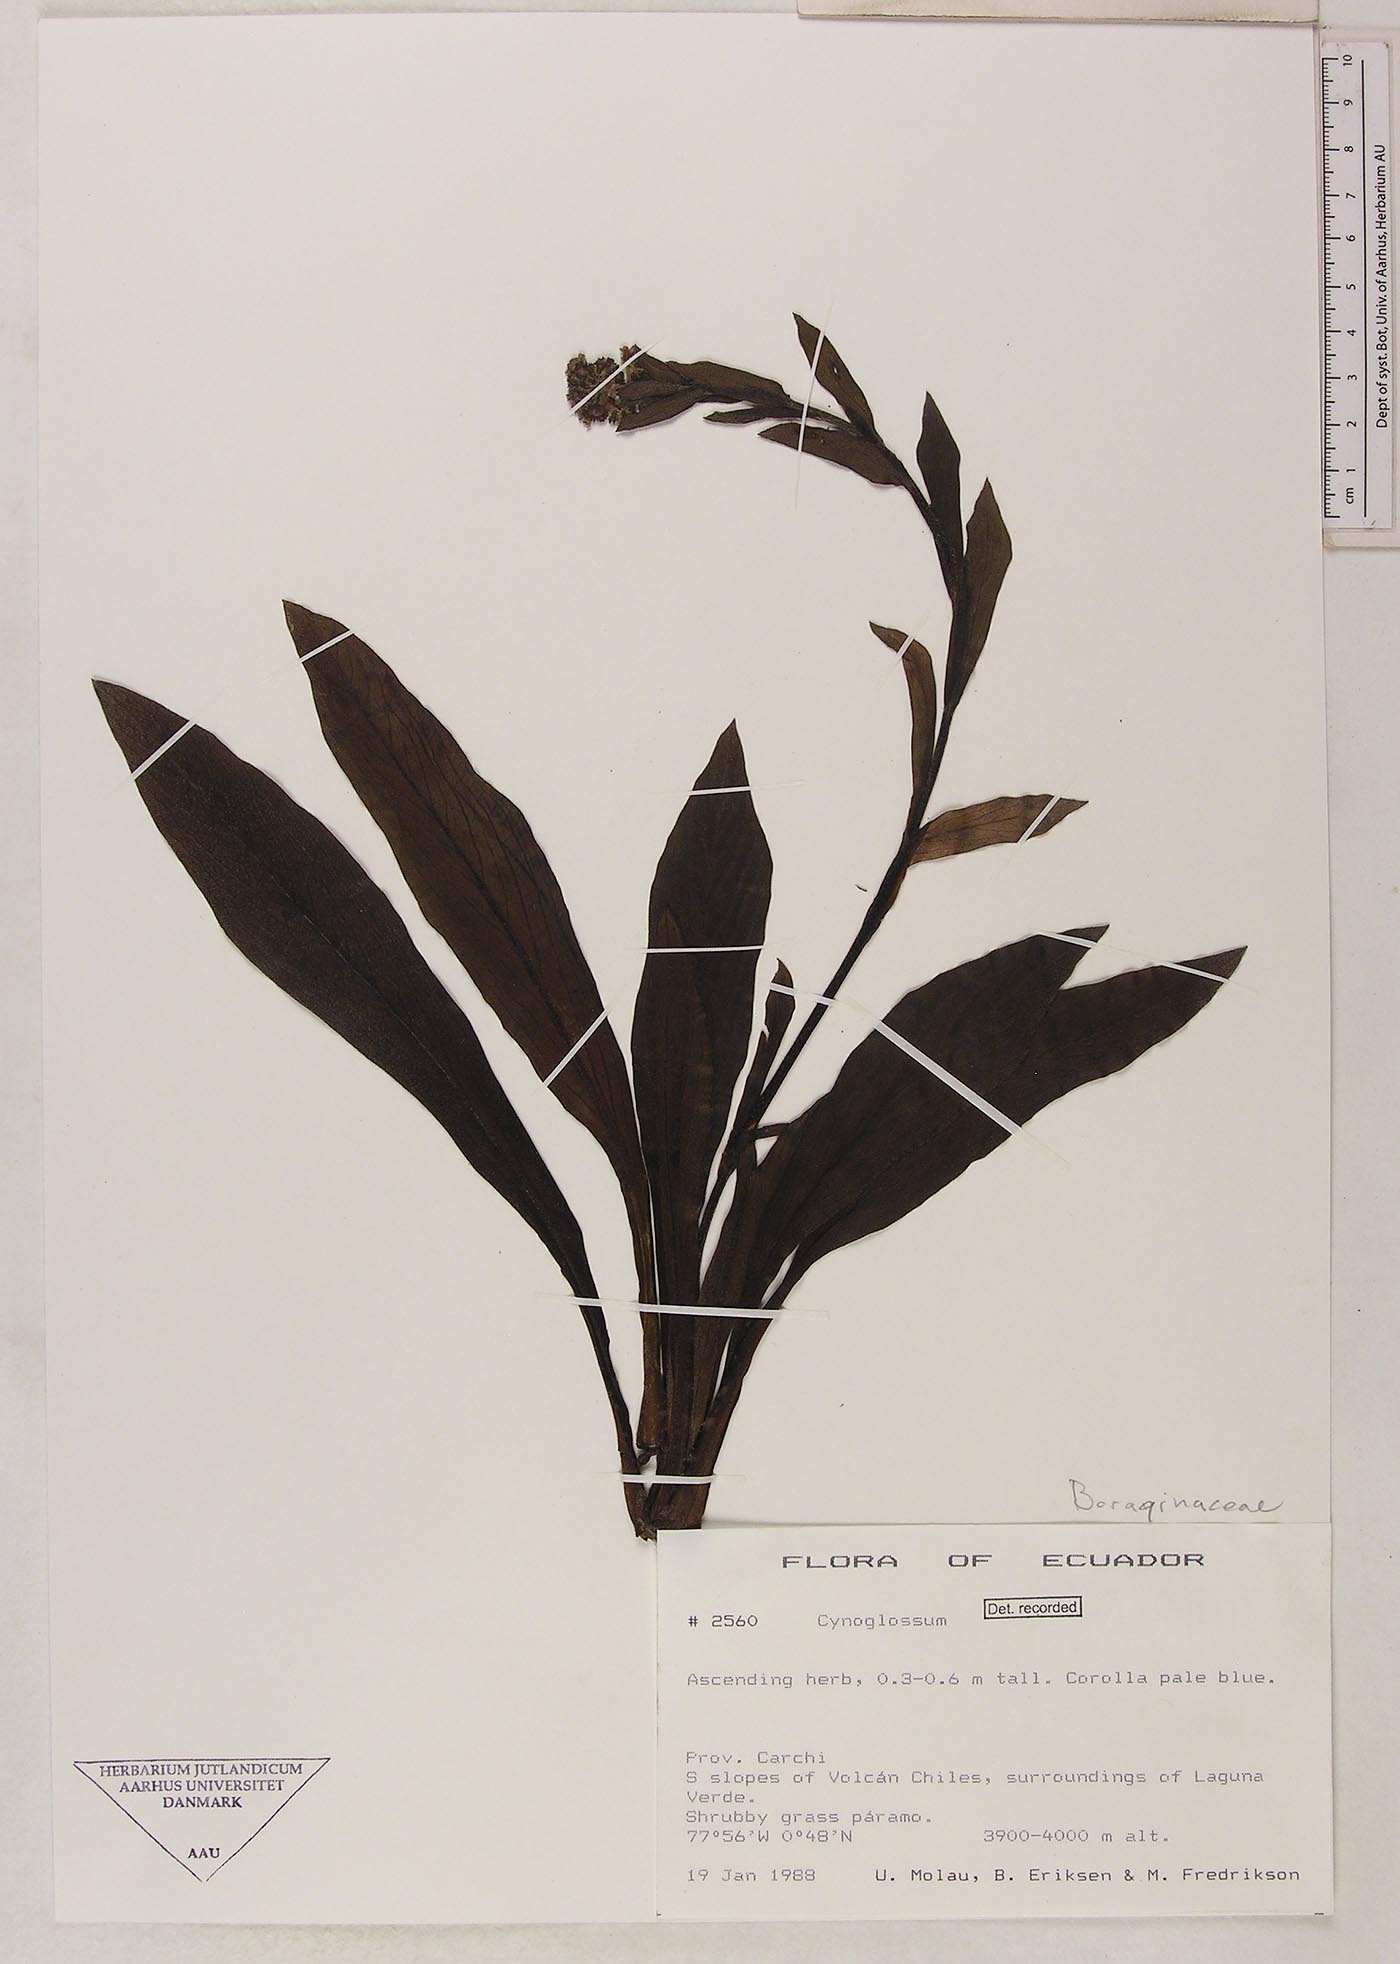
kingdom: Plantae
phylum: Tracheophyta
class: Magnoliopsida
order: Boraginales
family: Boraginaceae
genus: Moritzia
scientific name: Moritzia lindenii
